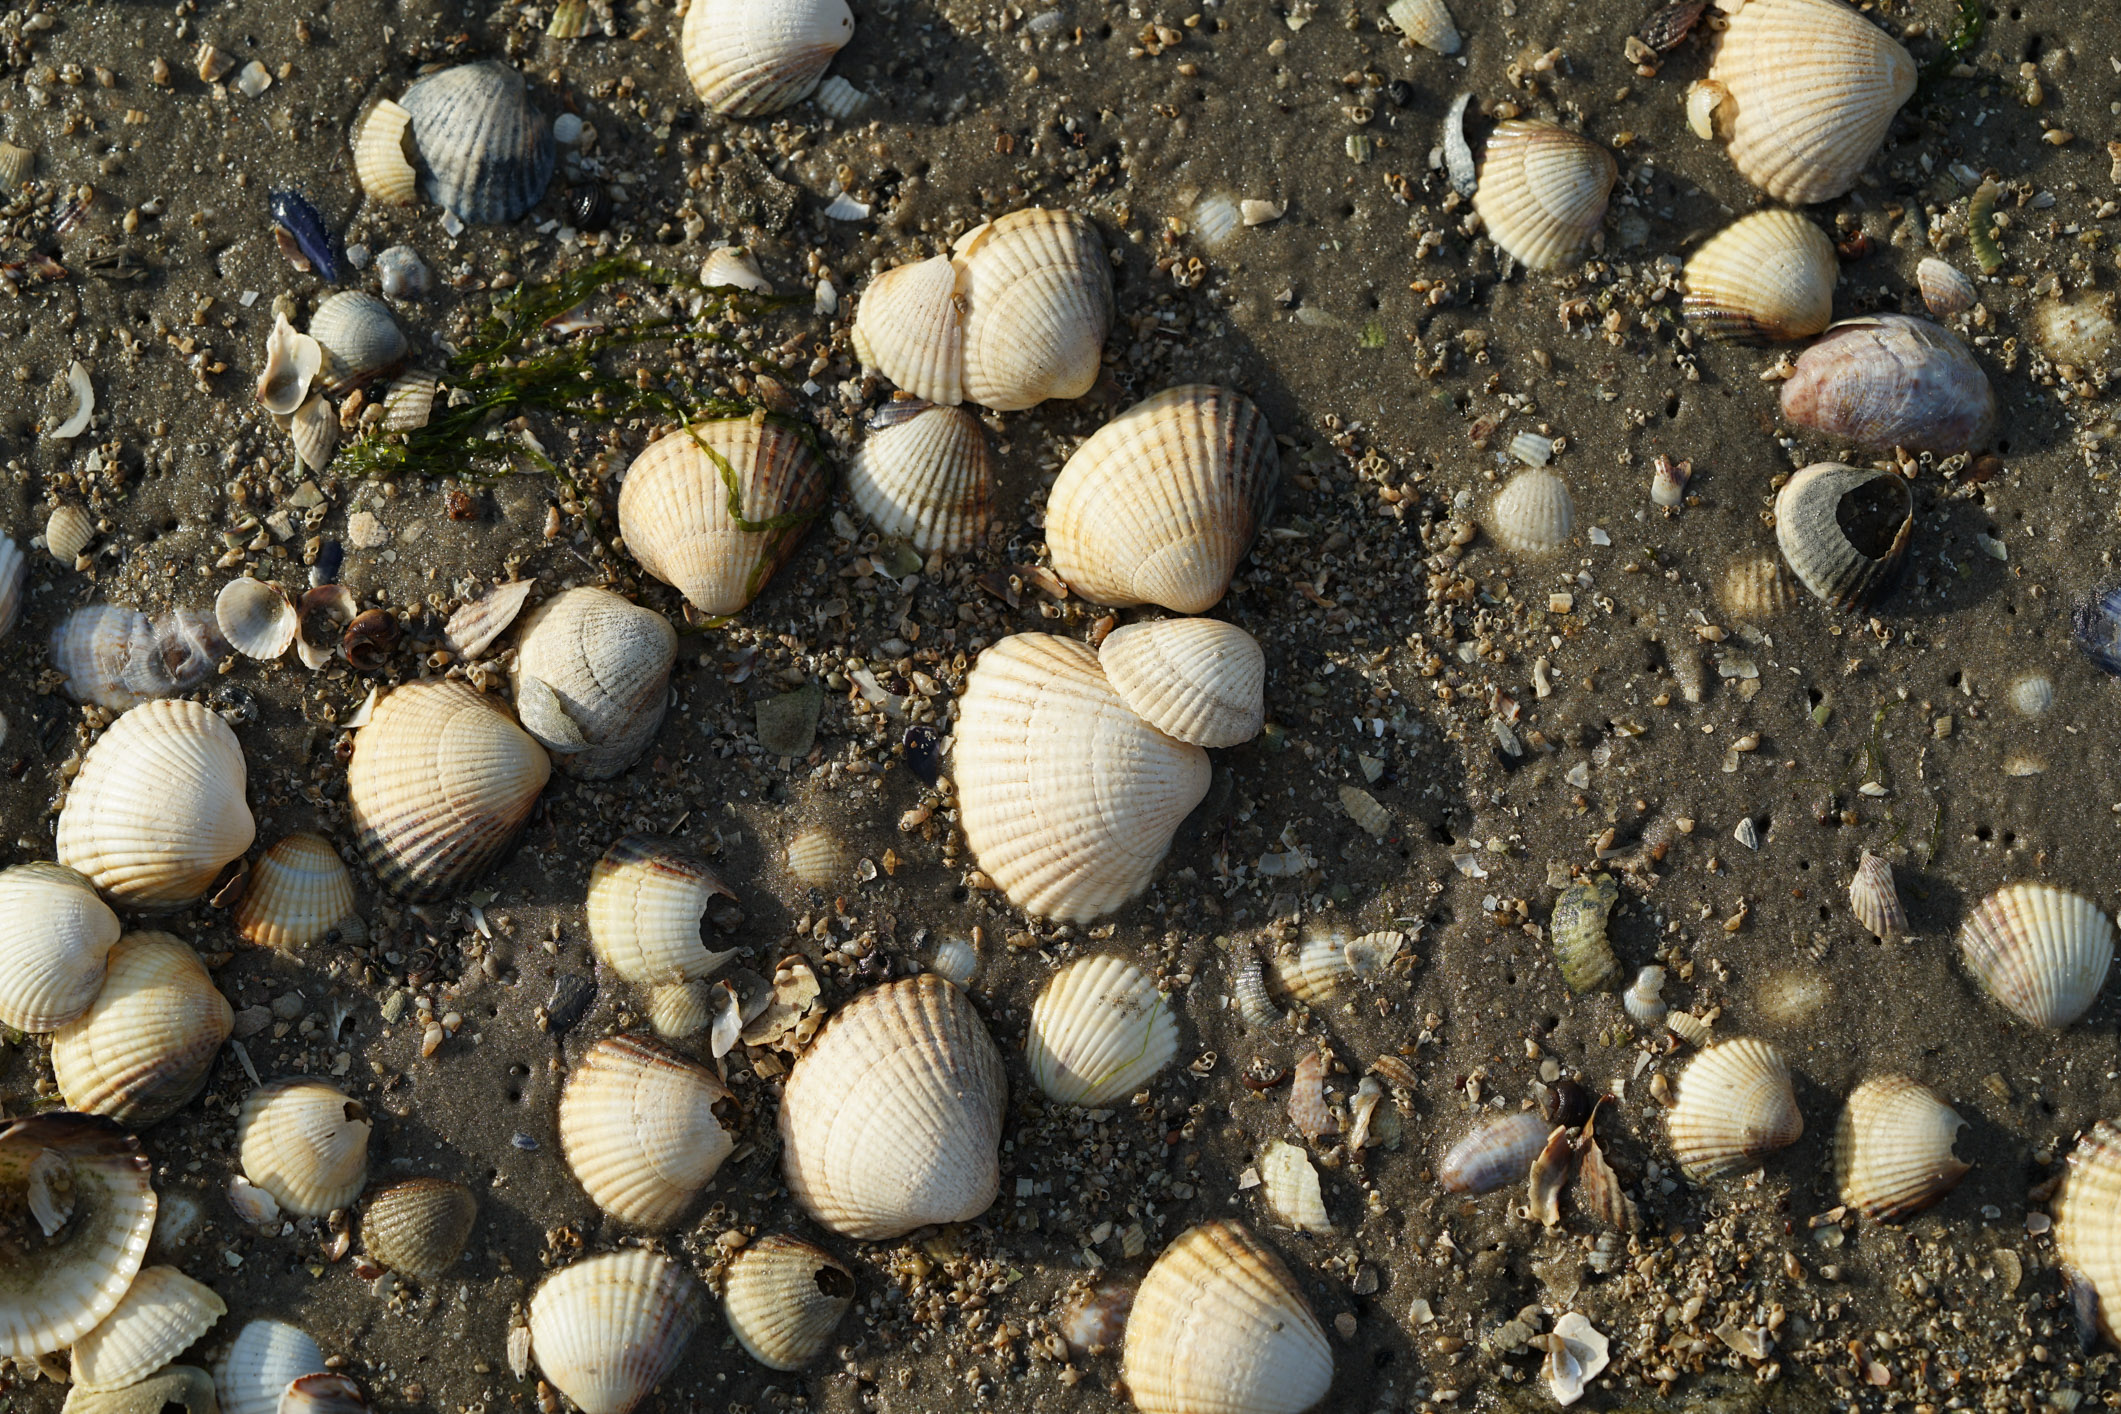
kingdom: Animalia
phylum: Mollusca
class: Bivalvia
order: Cardiida
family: Cardiidae
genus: Cerastoderma
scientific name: Cerastoderma edule
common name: Common cockle
